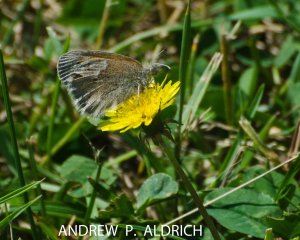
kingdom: Animalia
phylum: Arthropoda
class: Insecta
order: Lepidoptera
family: Nymphalidae
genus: Coenonympha
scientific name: Coenonympha tullia
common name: Large Heath
